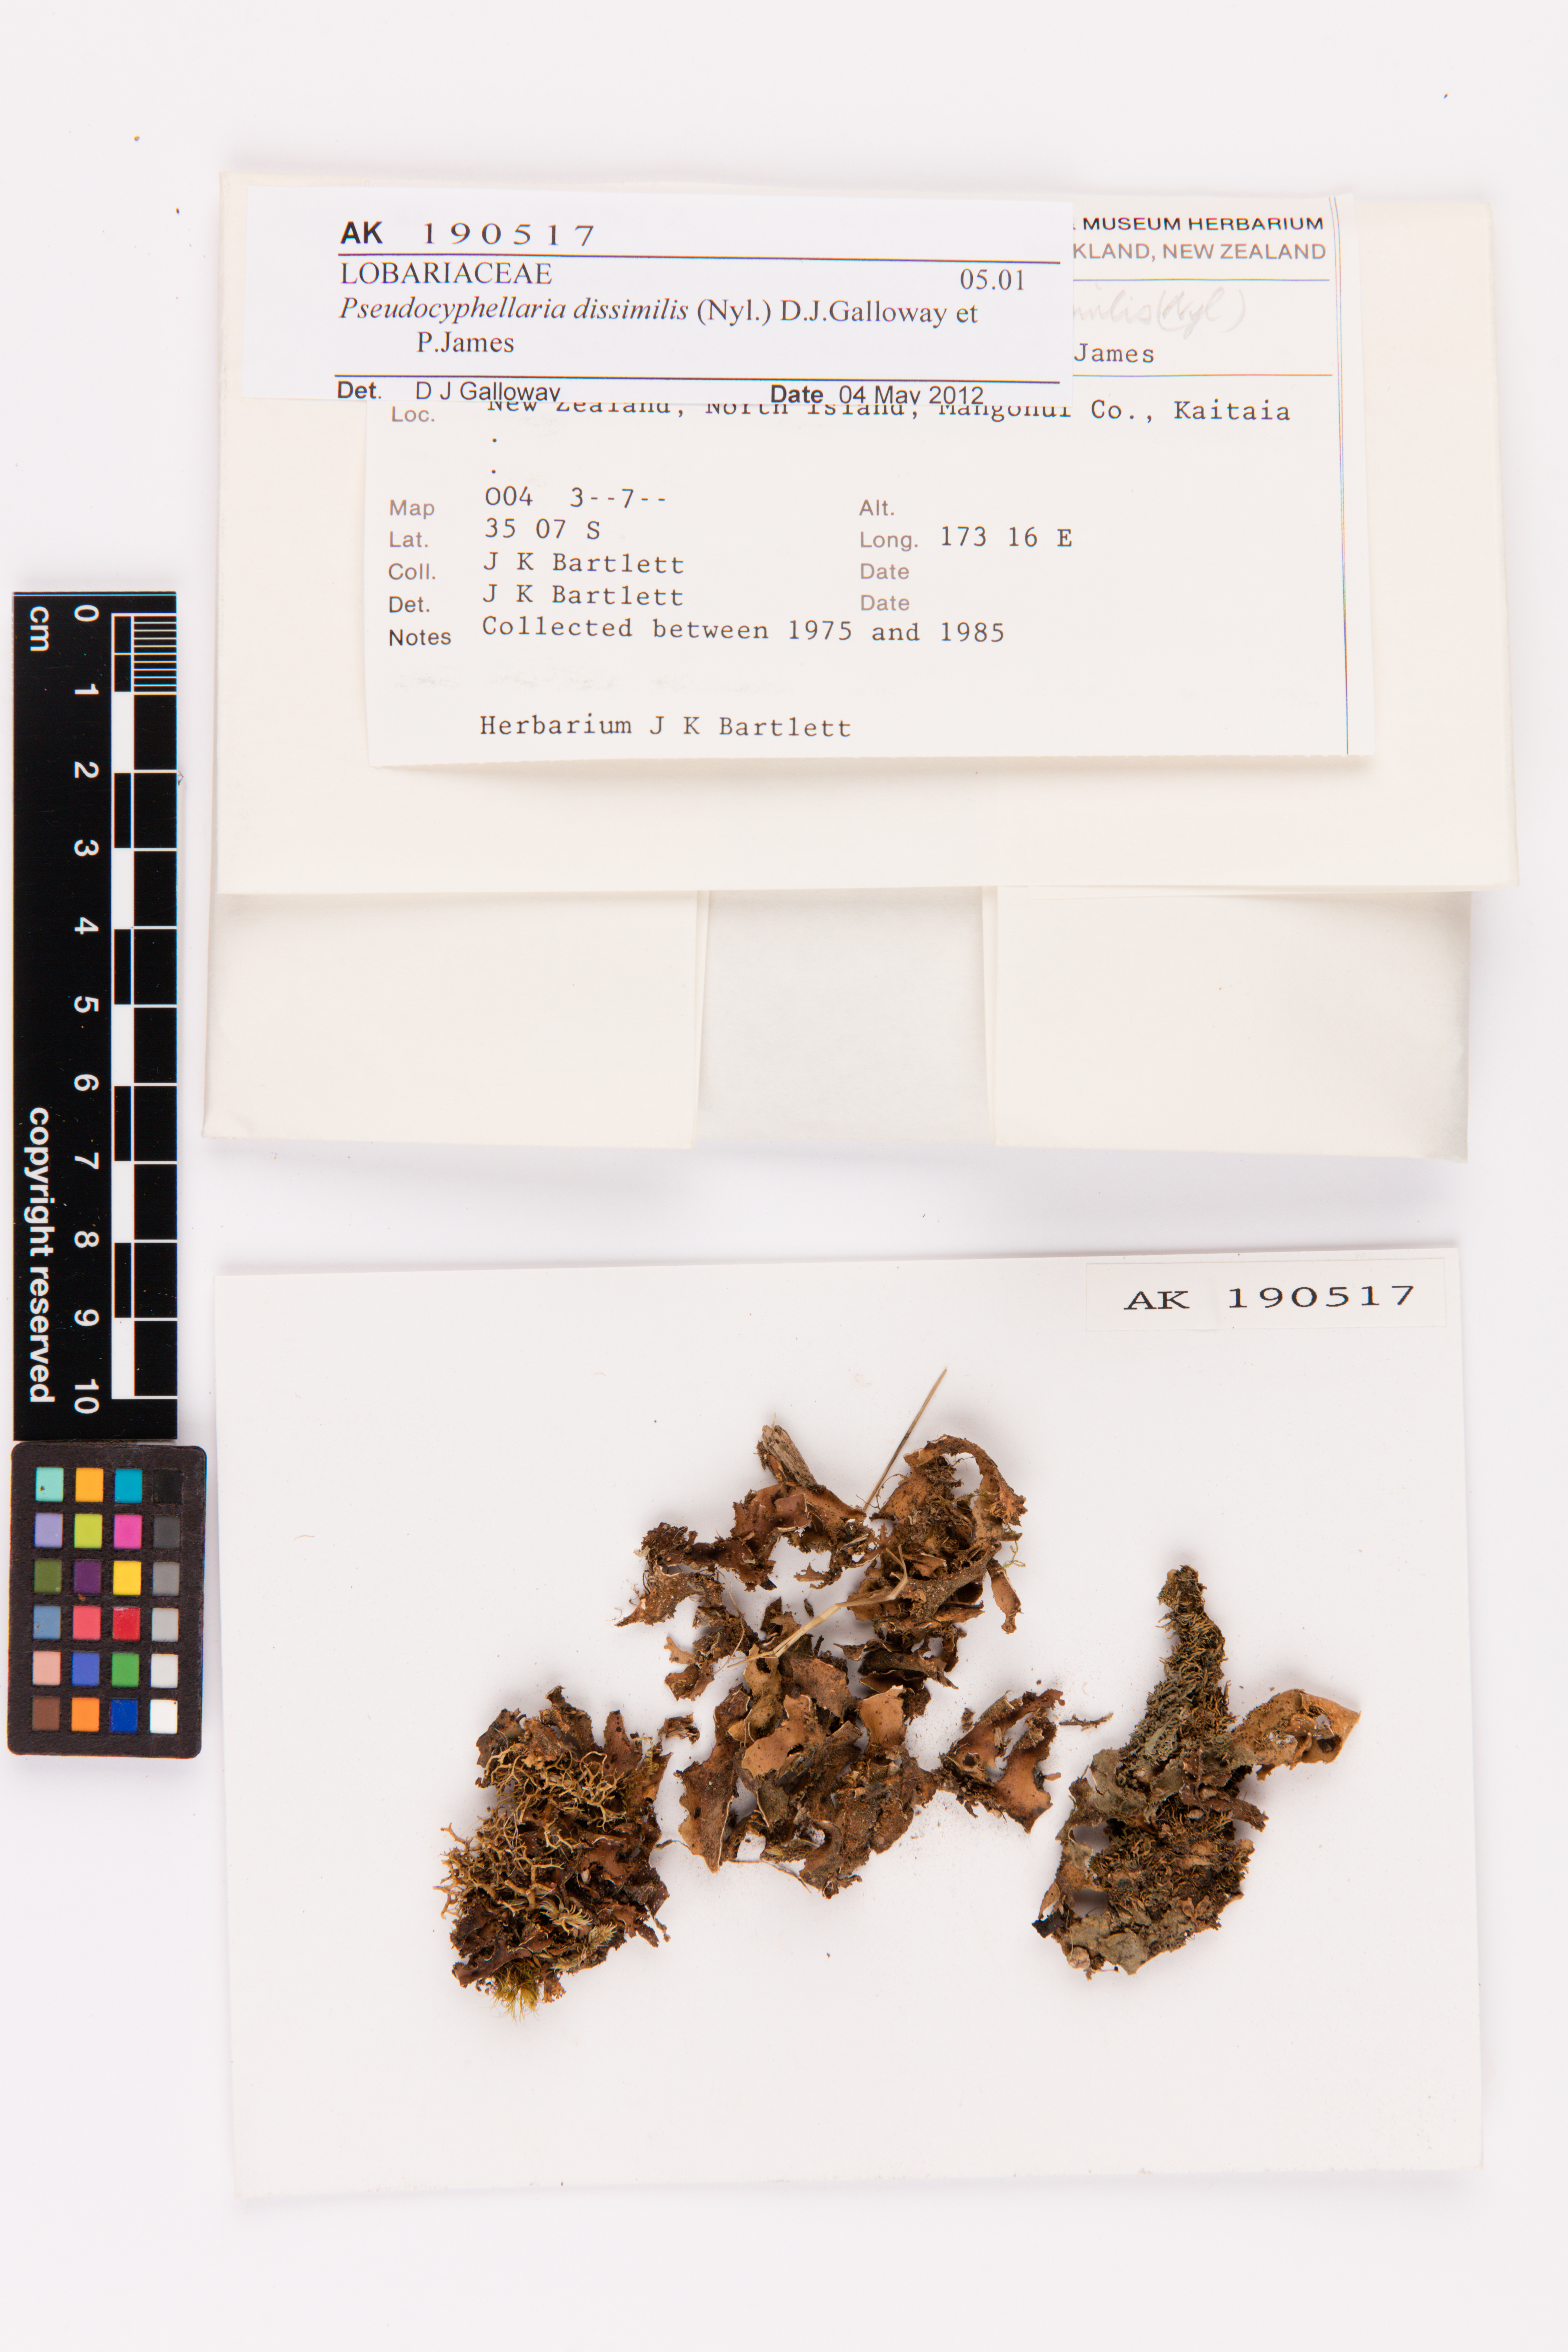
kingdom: Fungi
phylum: Ascomycota
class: Lecanoromycetes
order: Peltigerales
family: Lobariaceae
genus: Pseudocyphellaria
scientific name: Pseudocyphellaria dissimilis
